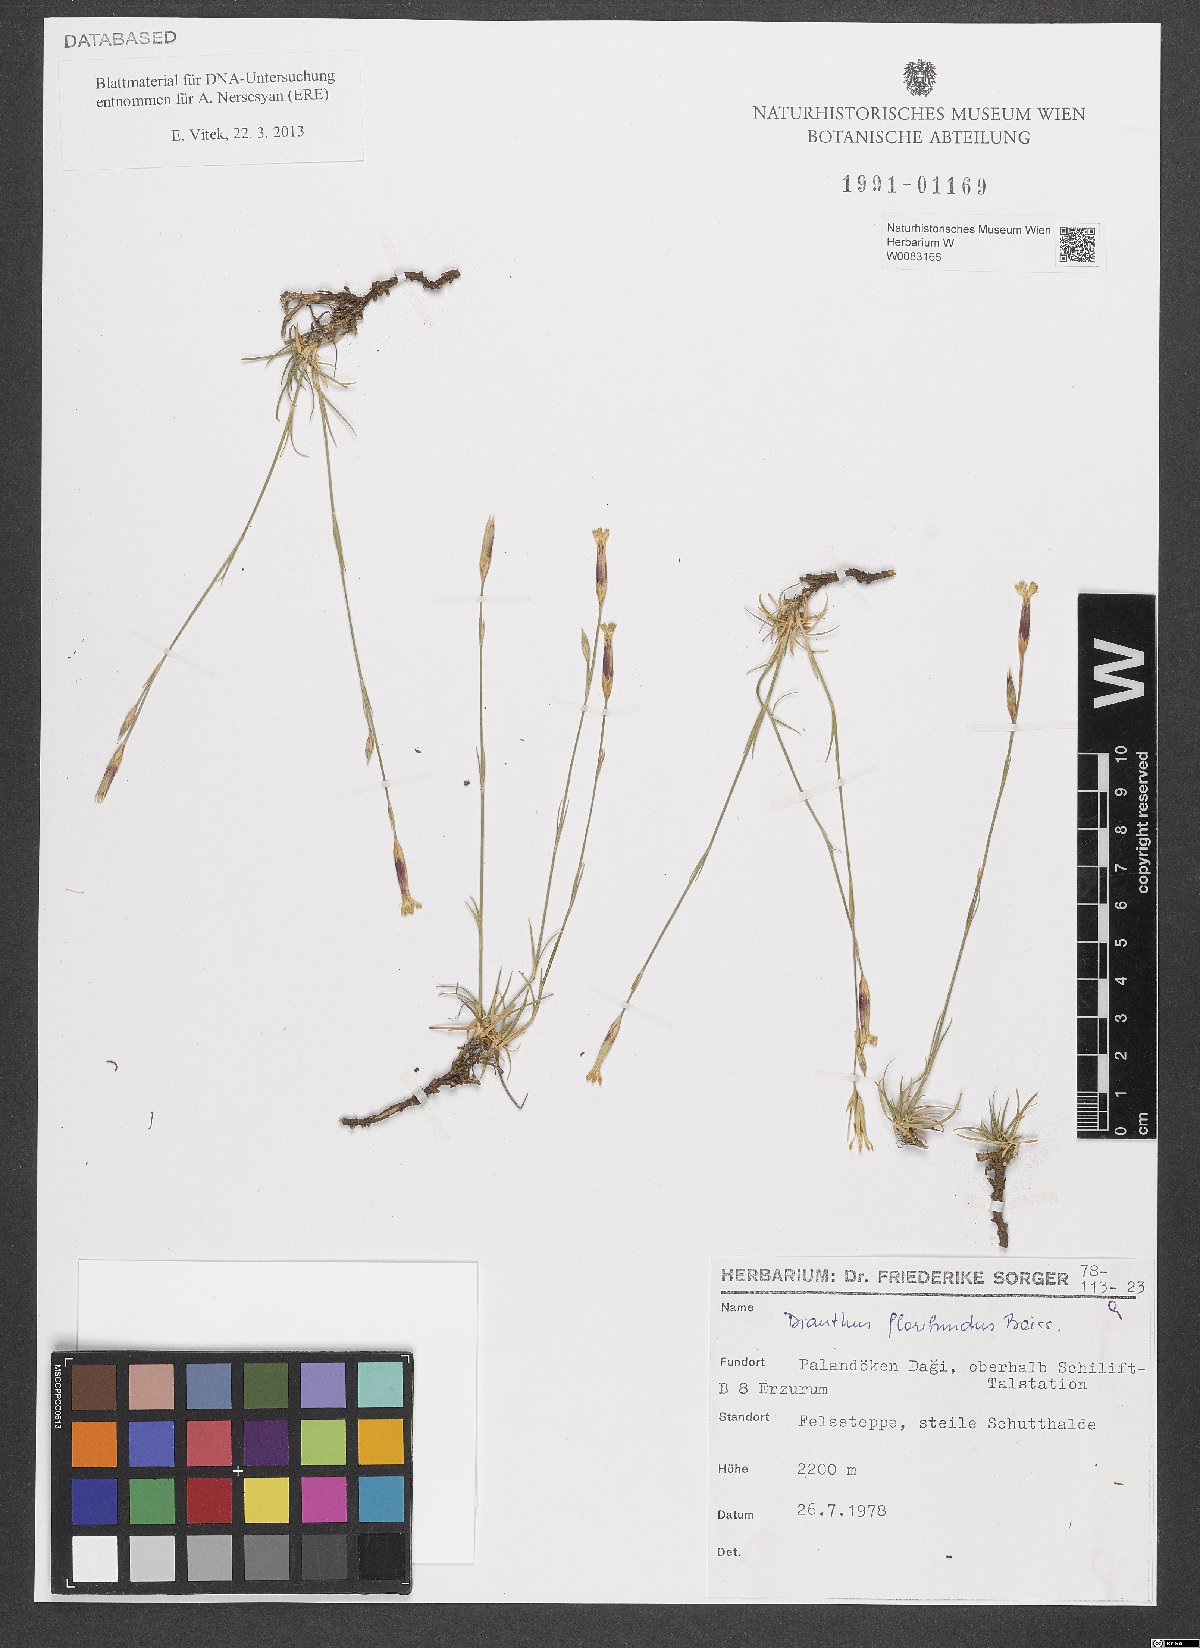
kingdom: Plantae
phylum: Tracheophyta
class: Magnoliopsida
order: Caryophyllales
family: Caryophyllaceae
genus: Dianthus
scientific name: Dianthus floribundus
